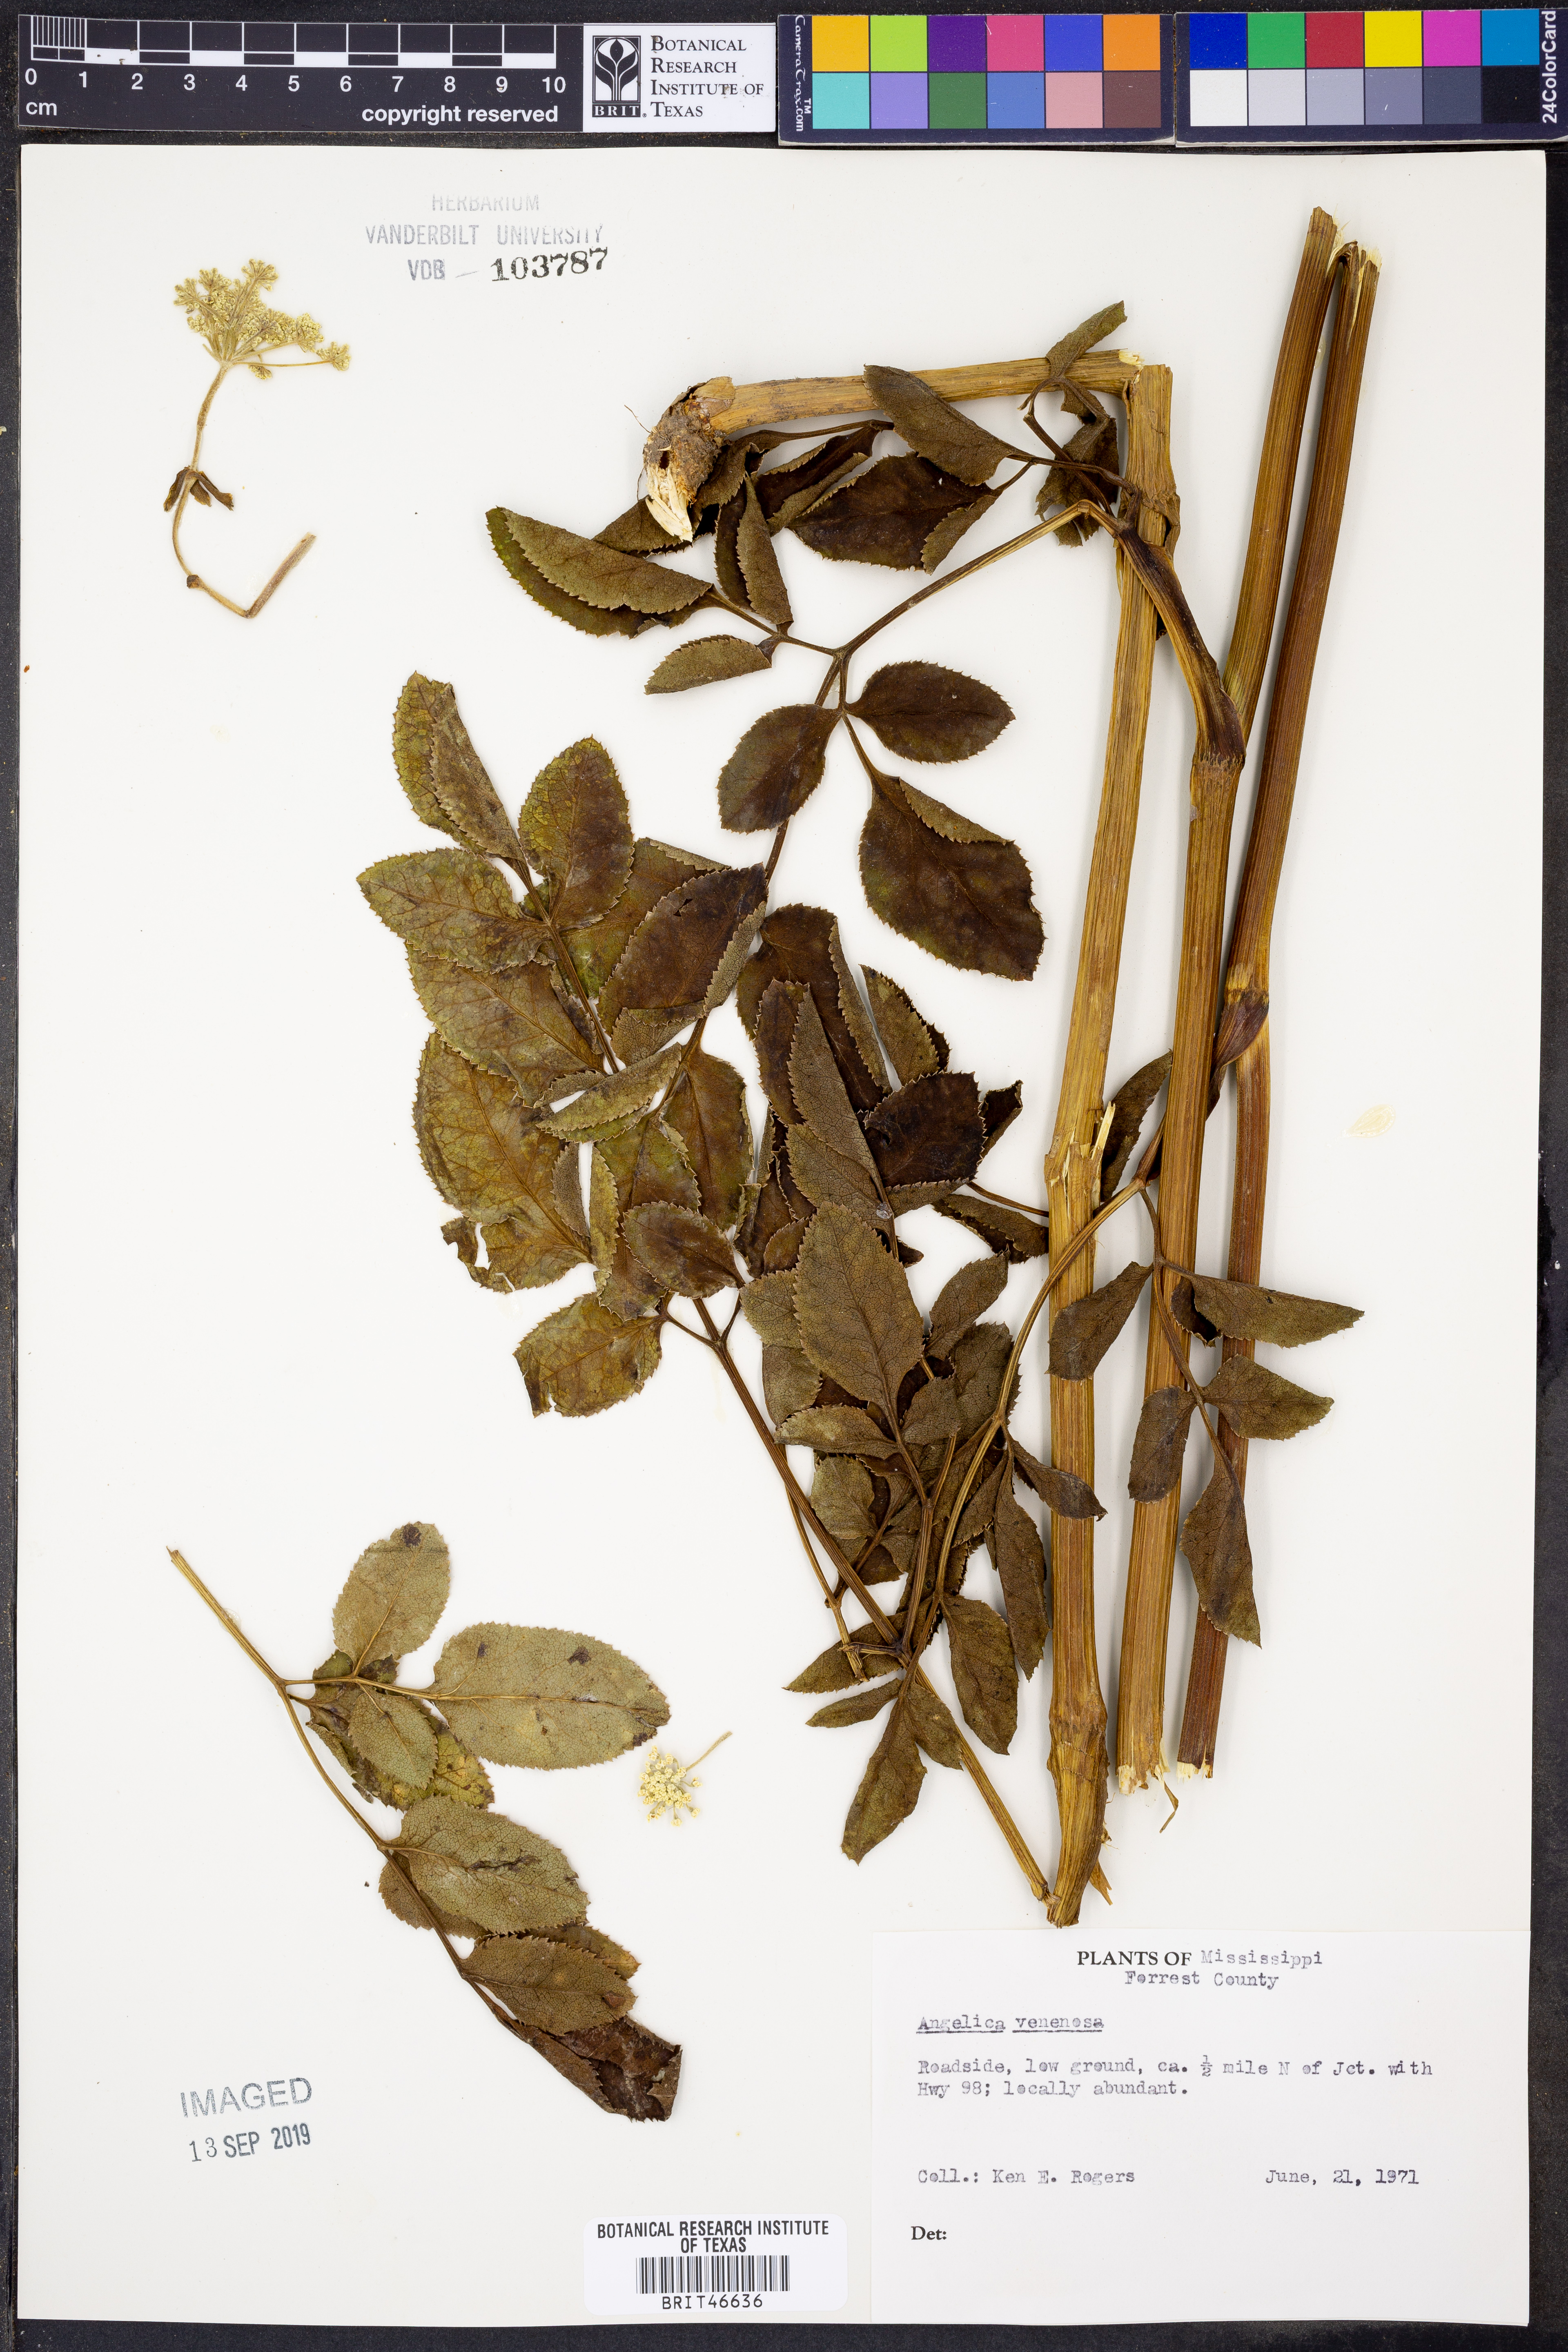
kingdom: Plantae
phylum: Tracheophyta
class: Magnoliopsida
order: Apiales
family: Apiaceae
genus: Angelica
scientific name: Angelica venenosa
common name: Hairy angelica
